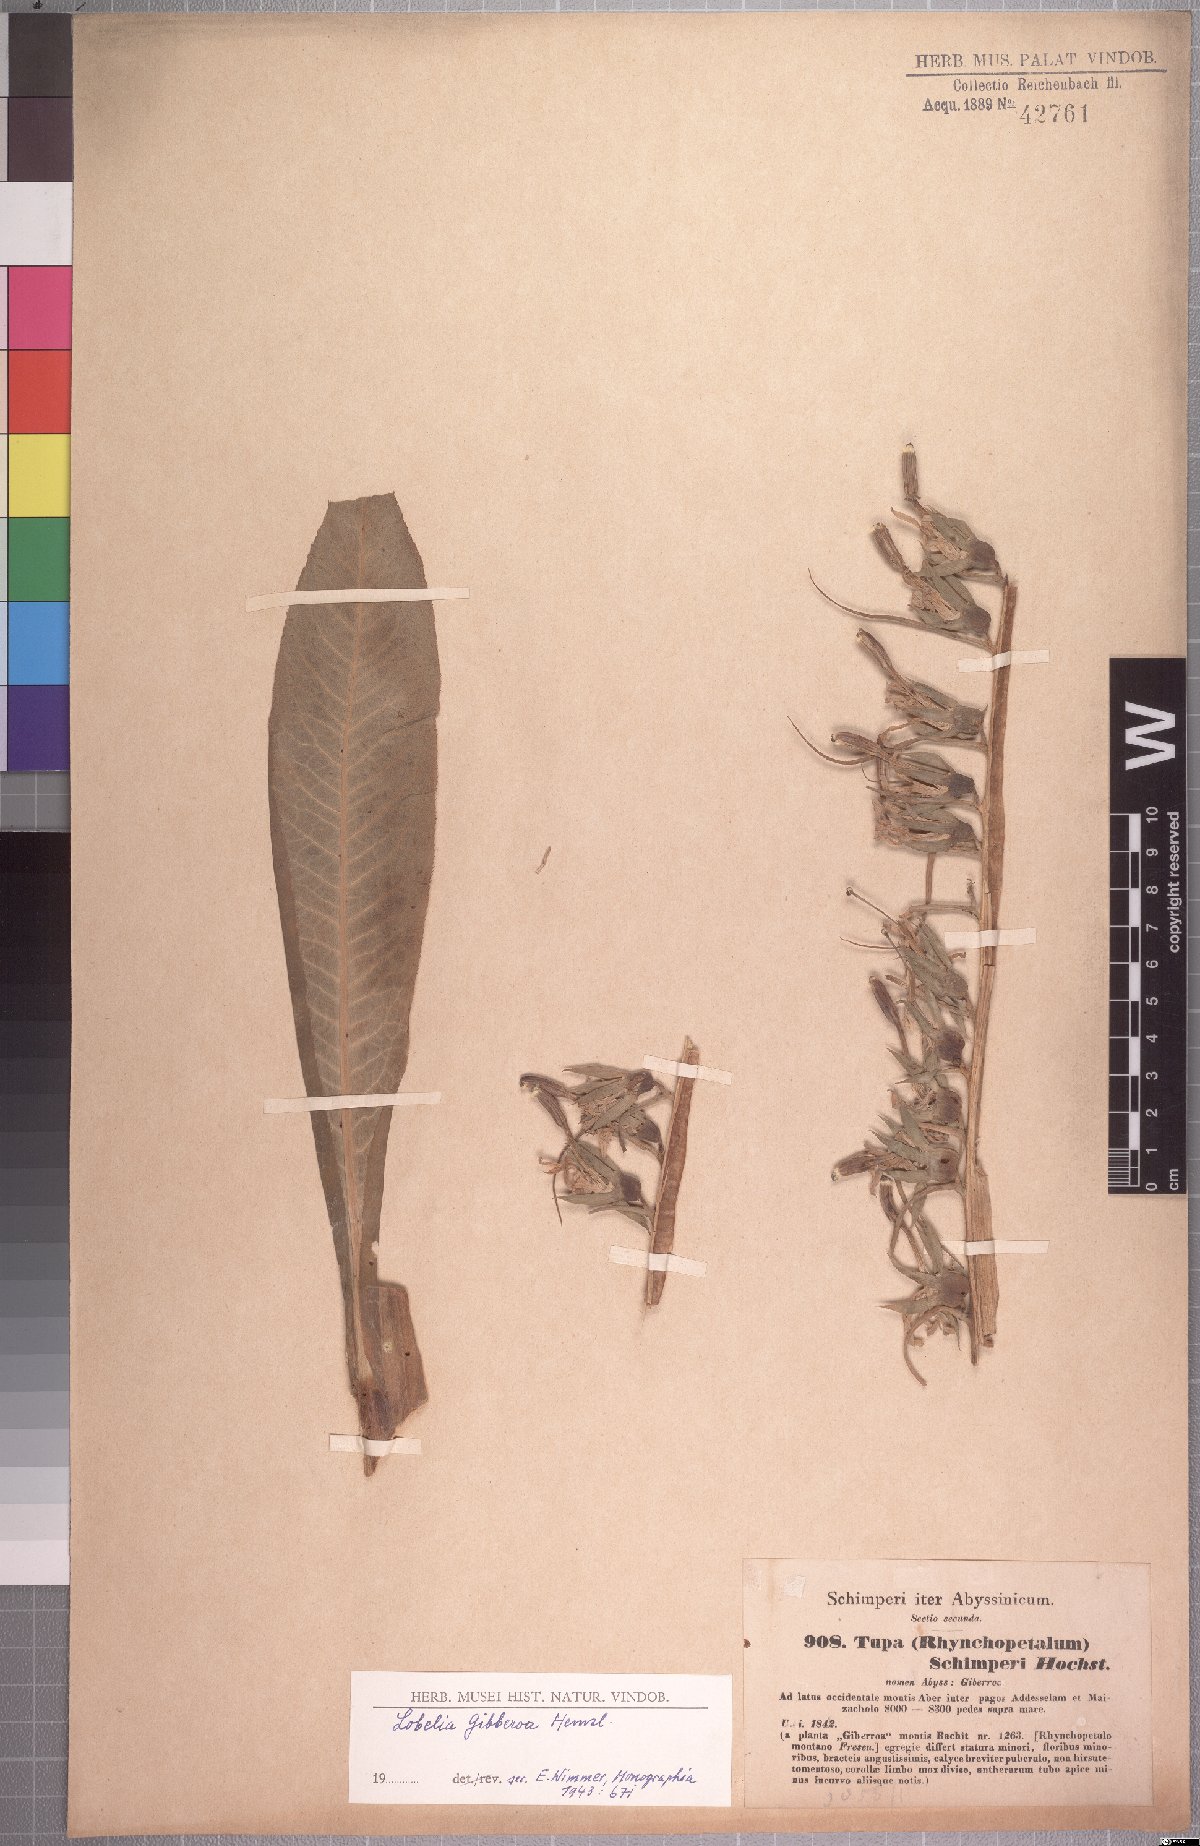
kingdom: Plantae
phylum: Tracheophyta
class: Magnoliopsida
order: Asterales
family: Campanulaceae
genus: Lobelia
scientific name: Lobelia giberroa
